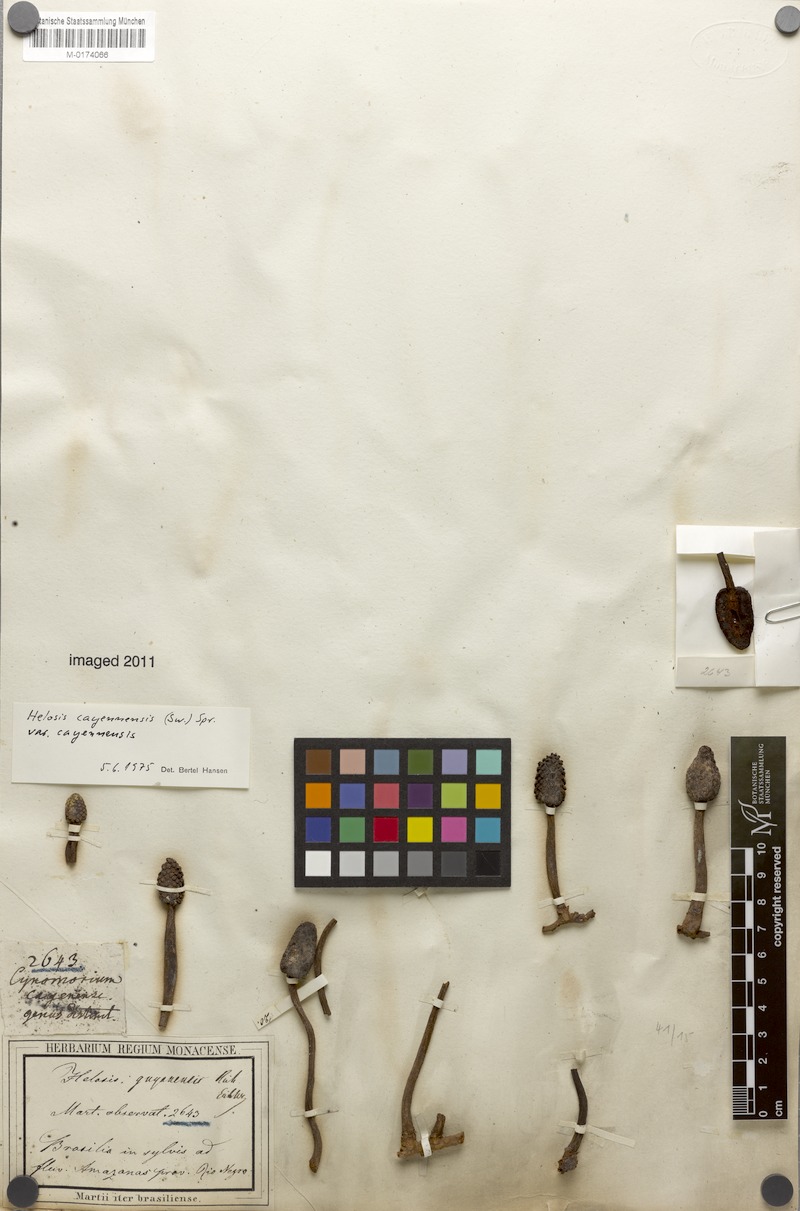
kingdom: Plantae
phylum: Tracheophyta
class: Magnoliopsida
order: Santalales
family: Balanophoraceae
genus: Helosis
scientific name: Helosis cayennensis
